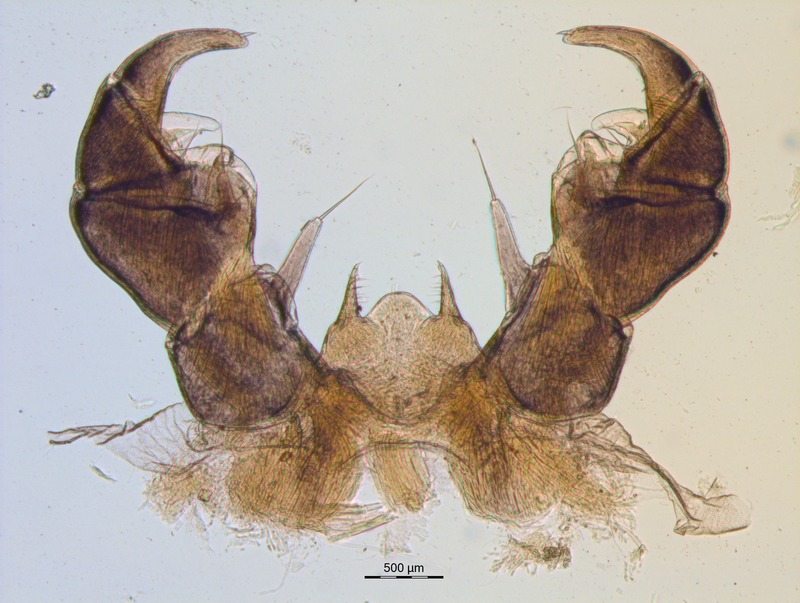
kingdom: Animalia
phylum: Arthropoda
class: Diplopoda
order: Glomerida
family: Glomeridae
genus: Onychoglomeris
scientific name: Onychoglomeris herzogowinensis
